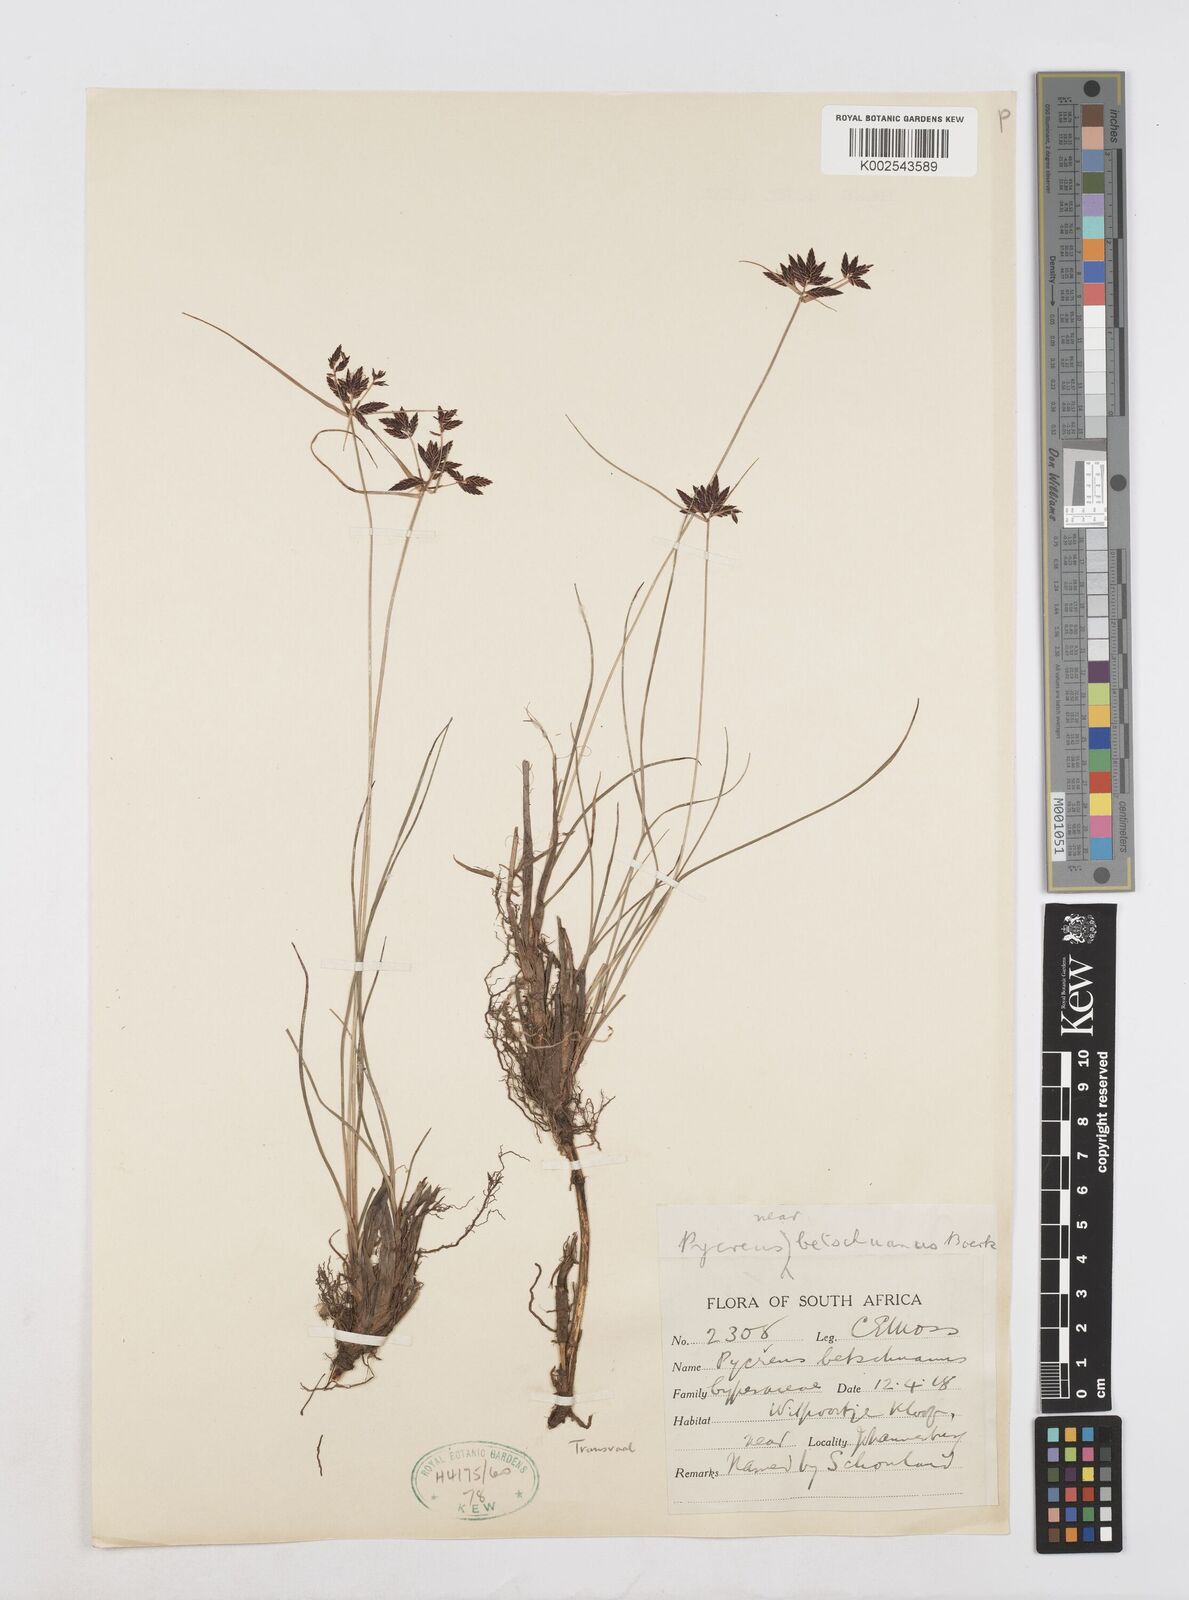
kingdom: Plantae
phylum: Tracheophyta
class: Liliopsida
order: Poales
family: Cyperaceae
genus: Cyperus
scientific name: Cyperus aethiops
